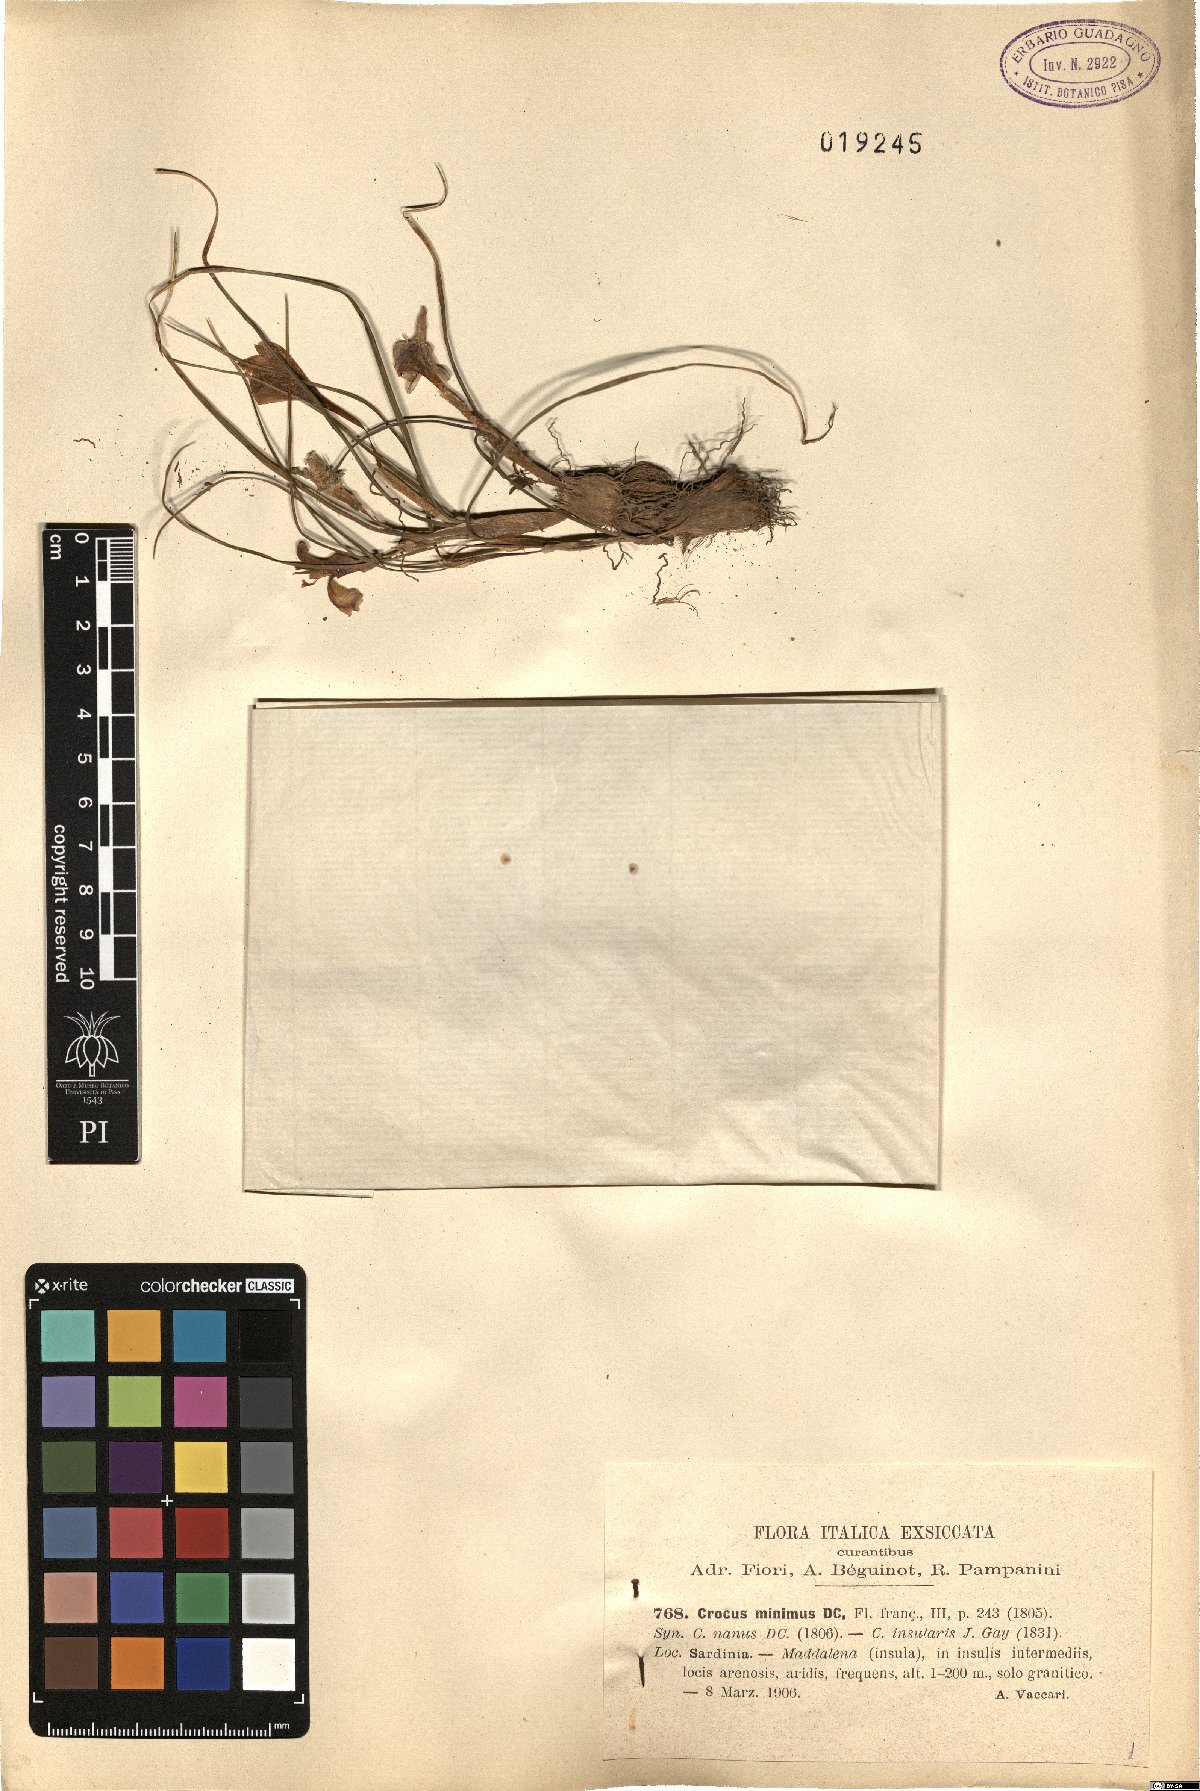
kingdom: Plantae
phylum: Tracheophyta
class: Liliopsida
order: Asparagales
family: Iridaceae
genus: Crocus
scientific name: Crocus minimus
